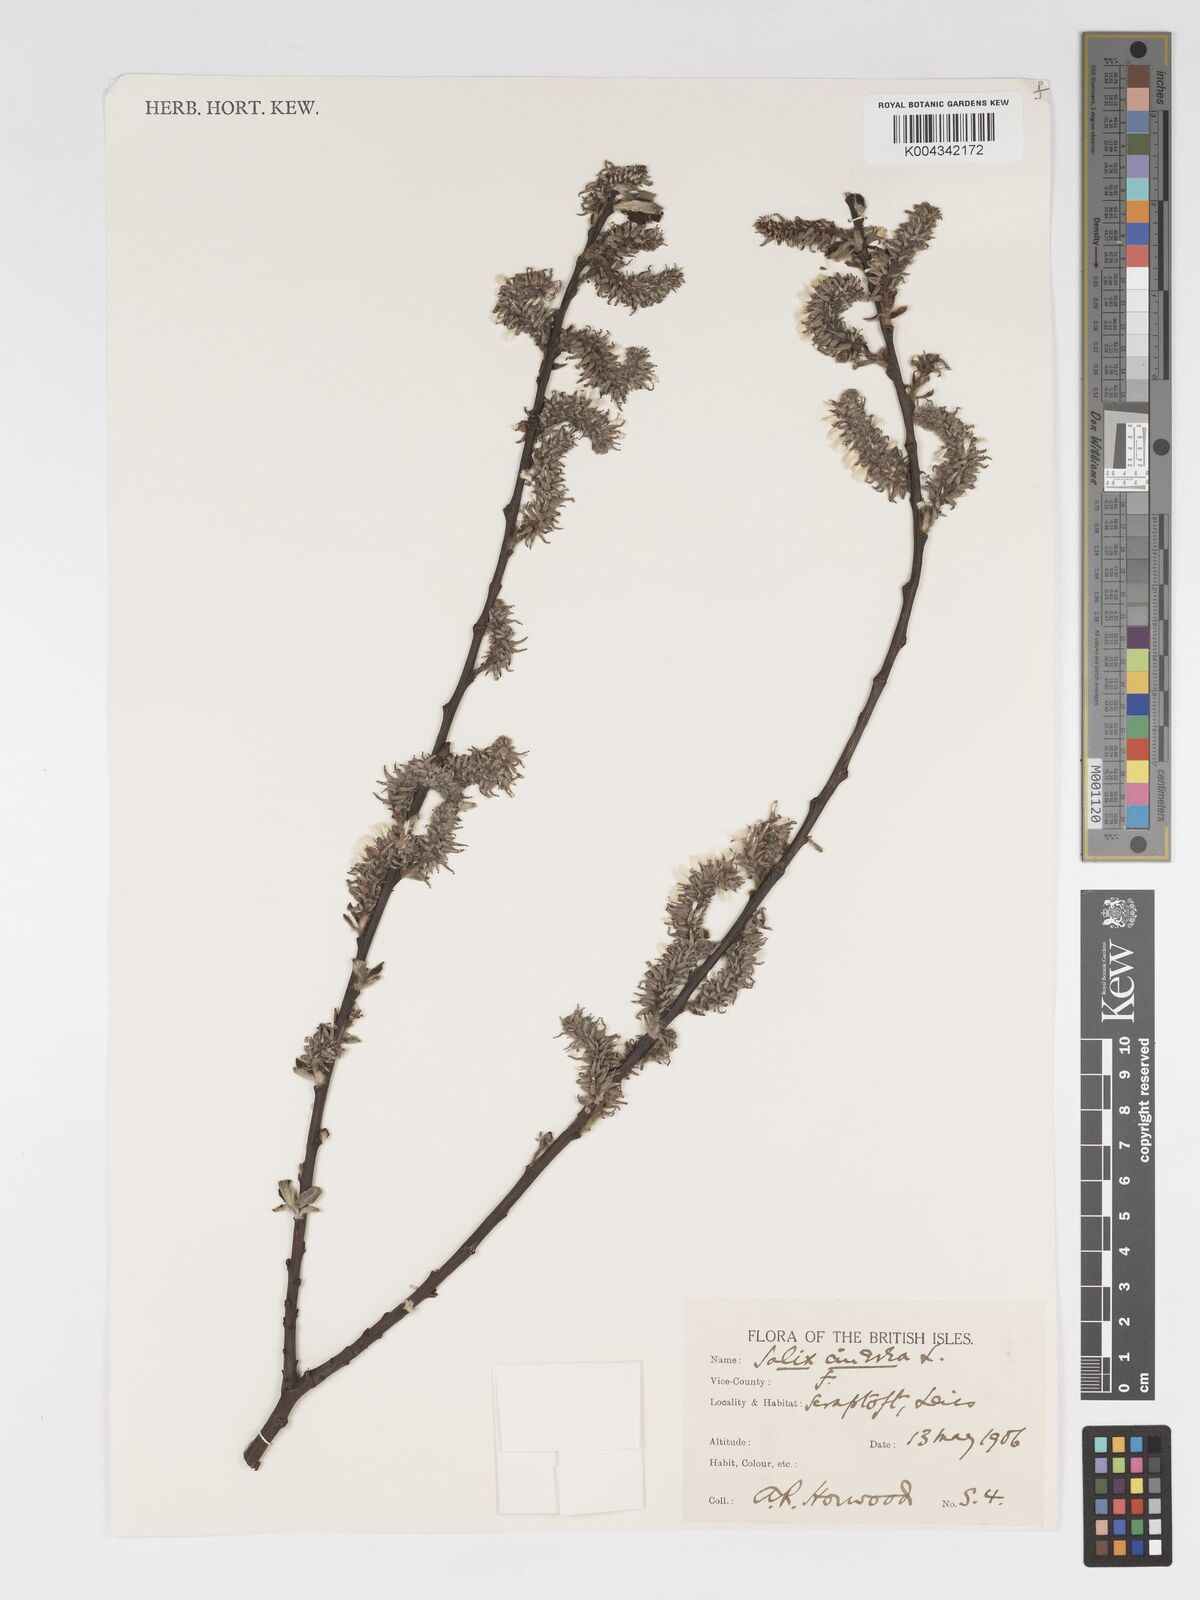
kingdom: Plantae
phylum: Tracheophyta
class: Magnoliopsida
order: Malpighiales
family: Salicaceae
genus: Salix
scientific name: Salix
